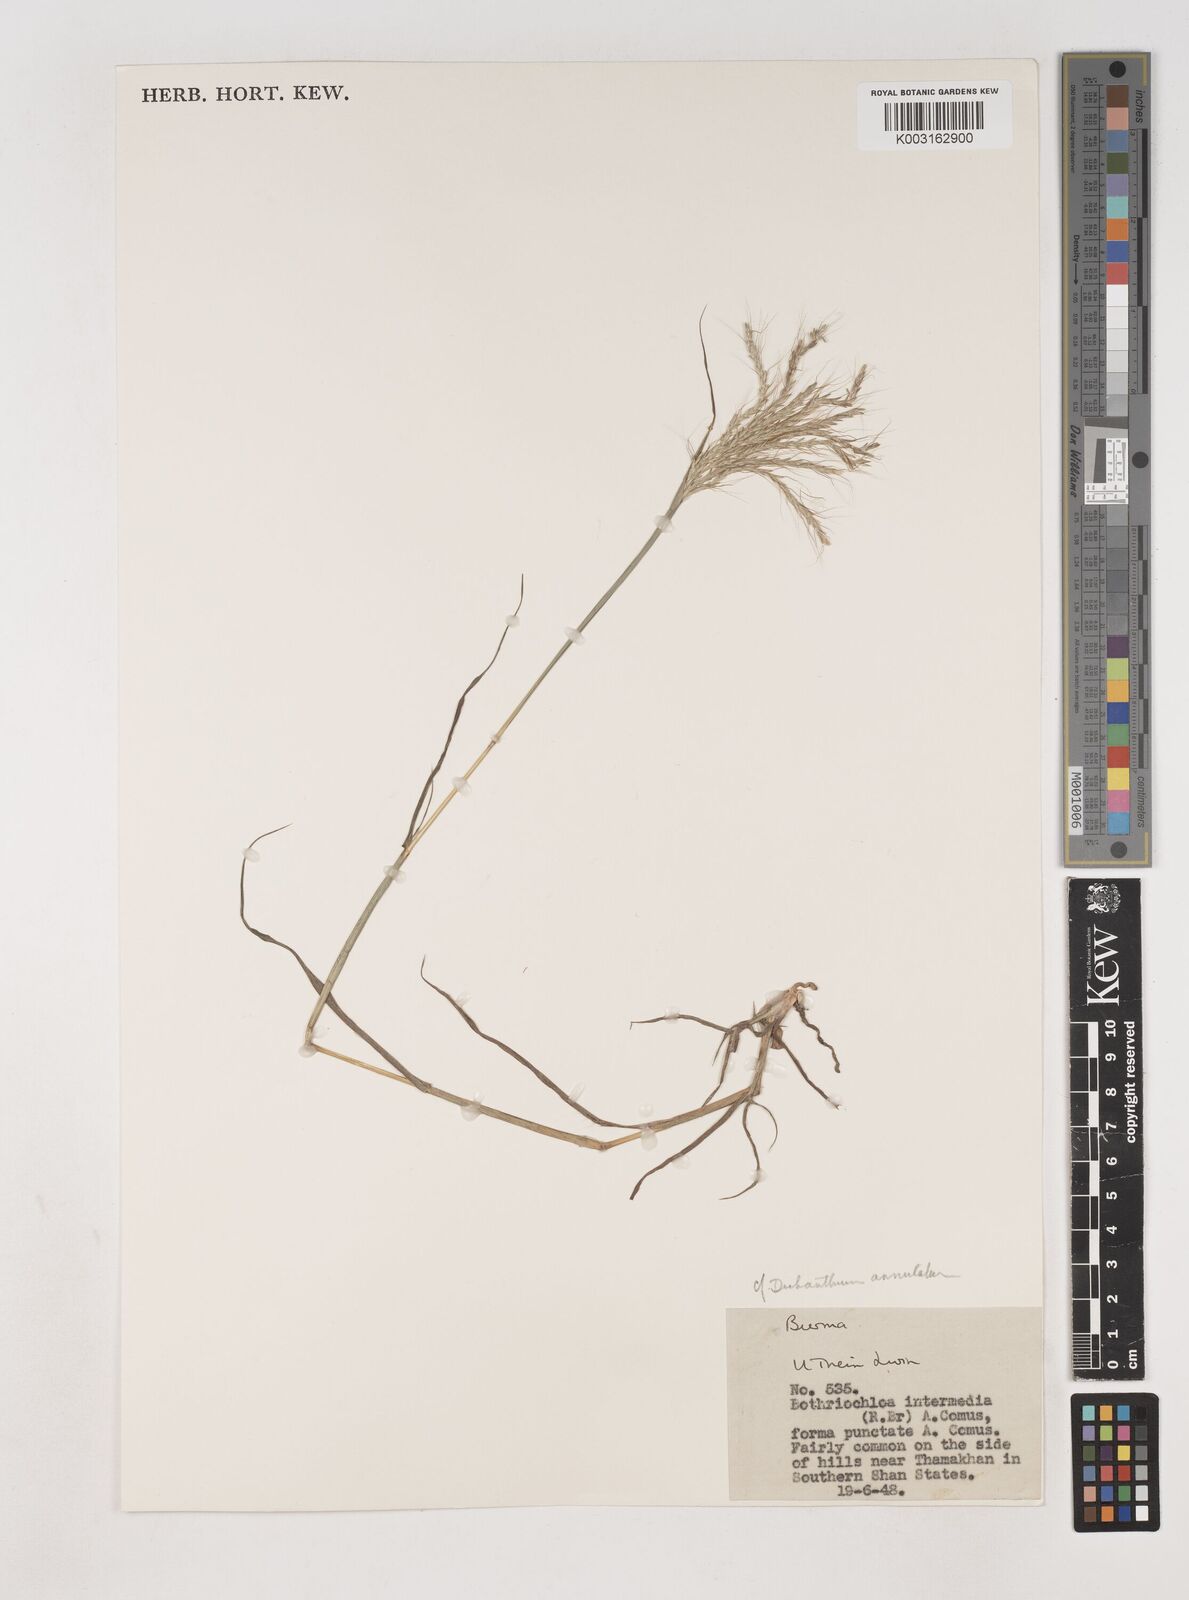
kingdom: Plantae
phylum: Tracheophyta
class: Liliopsida
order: Poales
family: Poaceae
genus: Dichanthium
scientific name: Dichanthium annulatum
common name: Kleberg's bluestem
